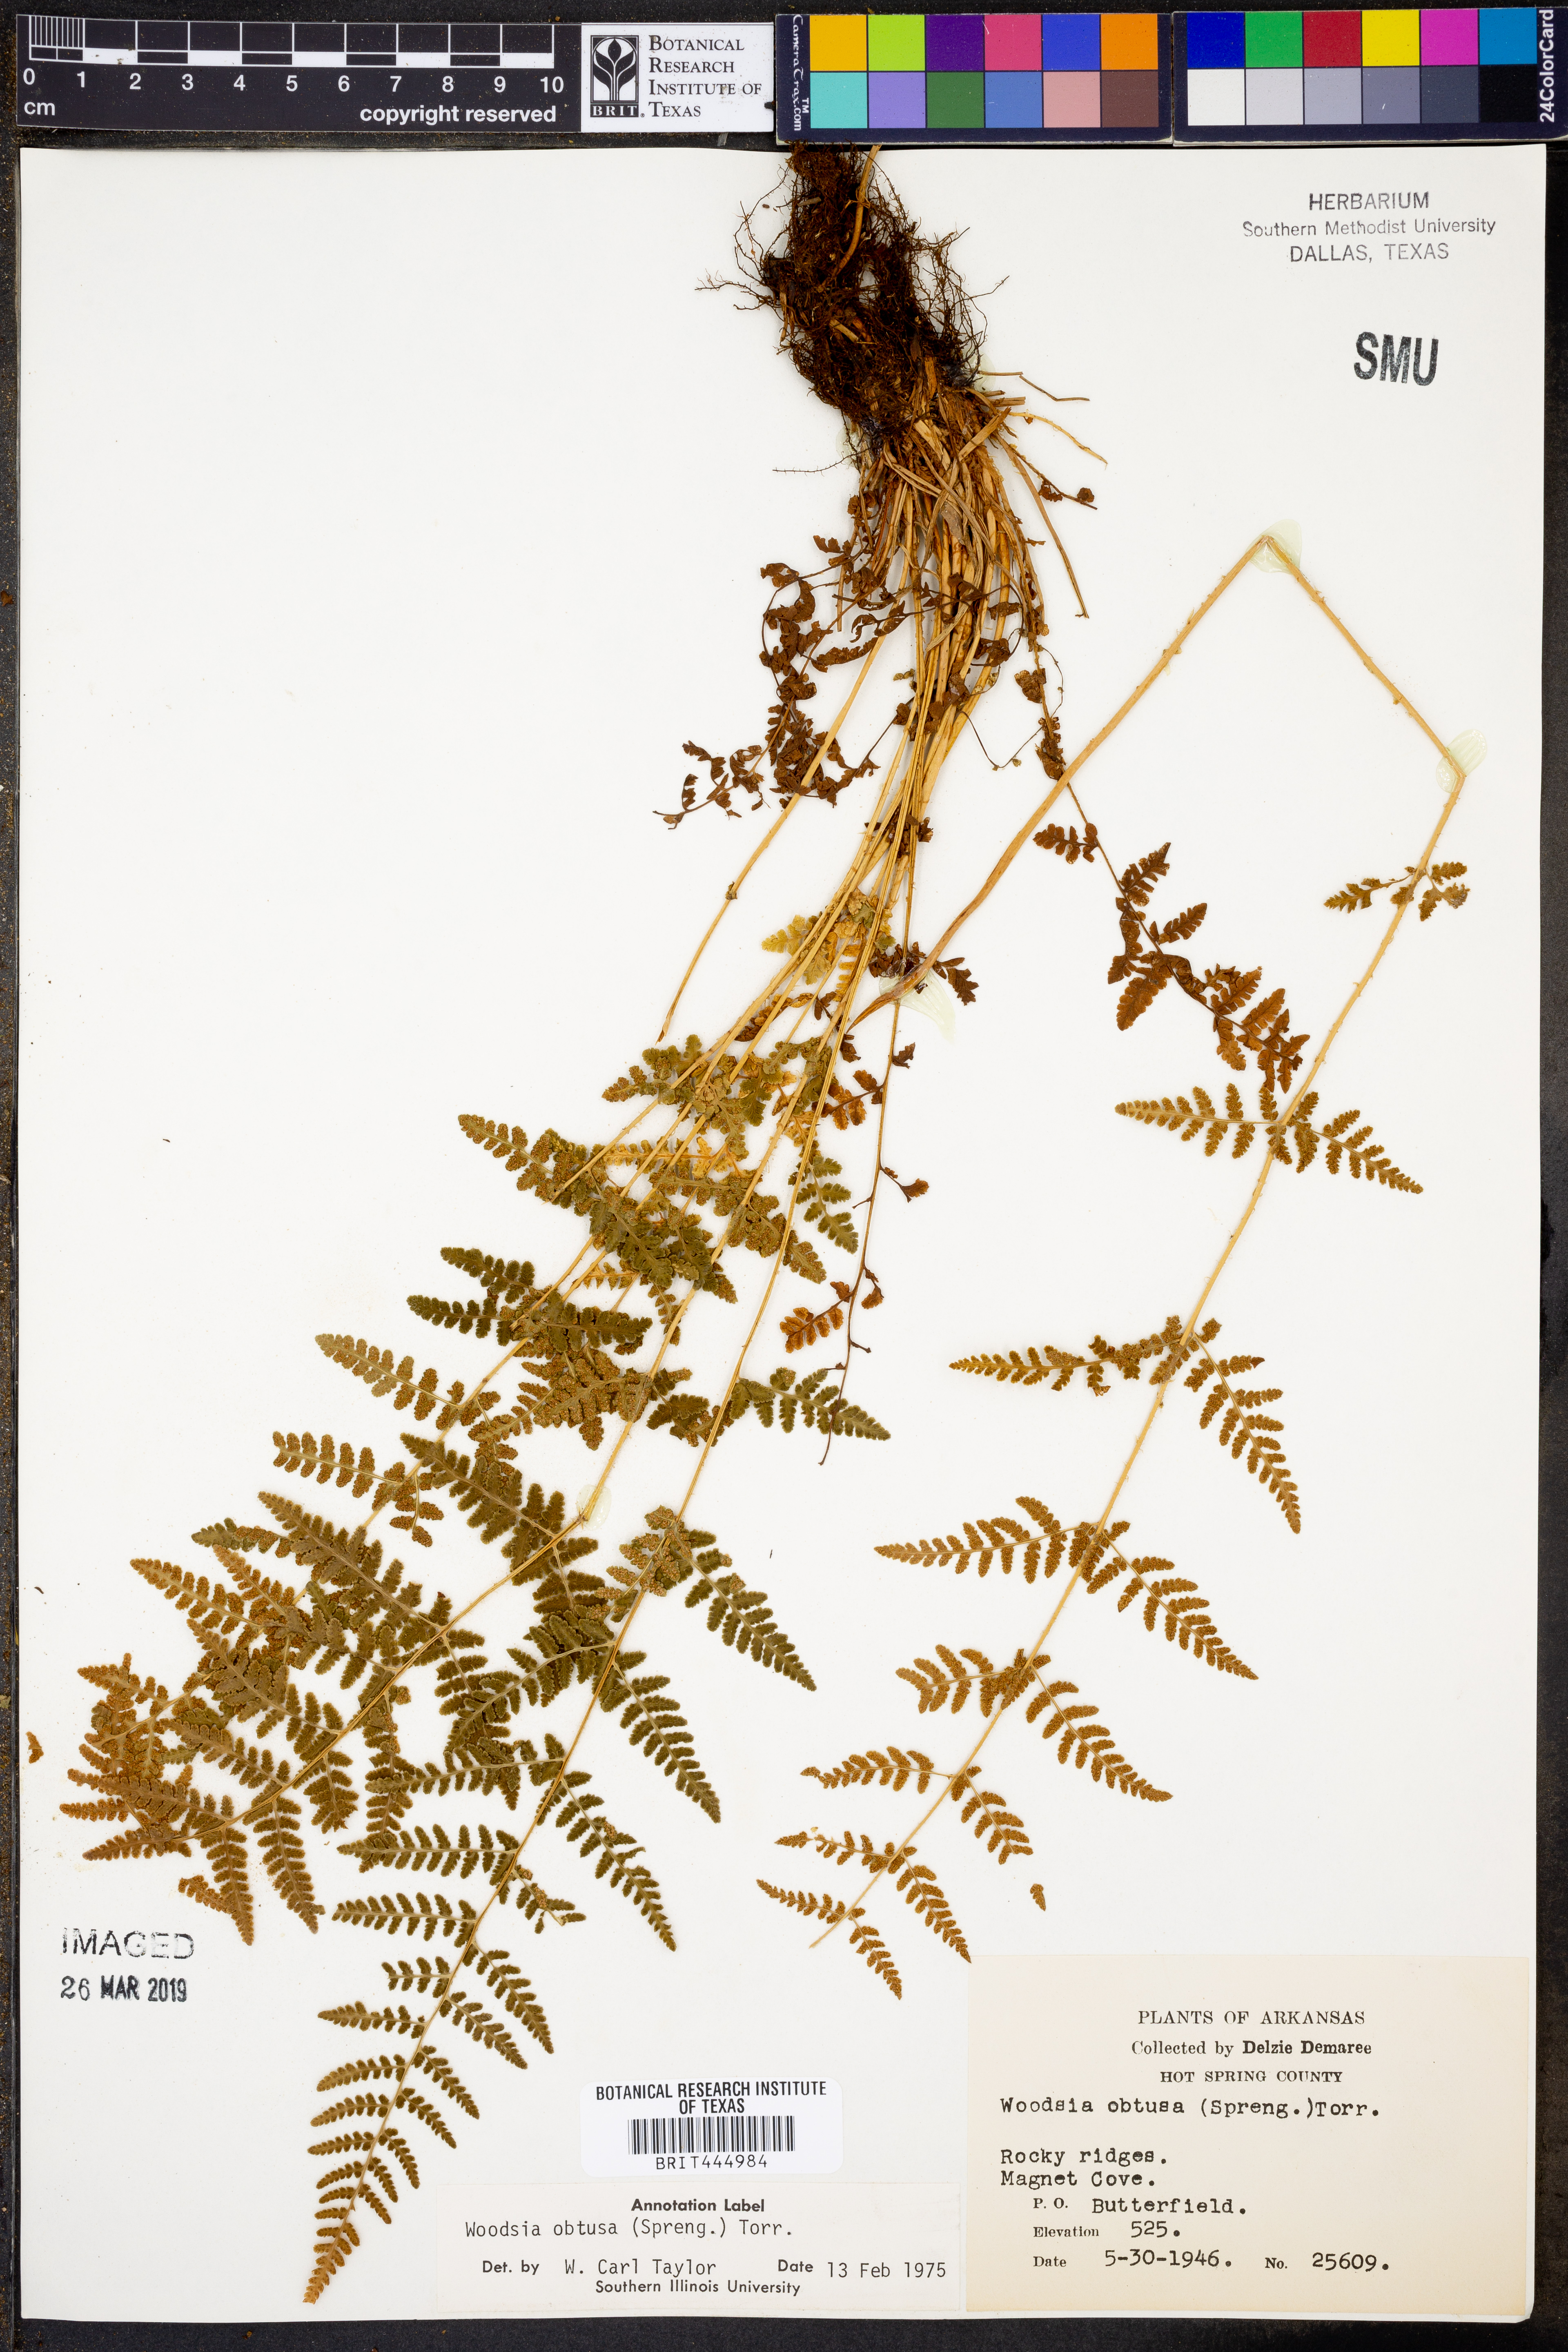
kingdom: Plantae
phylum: Tracheophyta
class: Polypodiopsida
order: Polypodiales
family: Woodsiaceae
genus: Physematium
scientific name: Physematium obtusum
